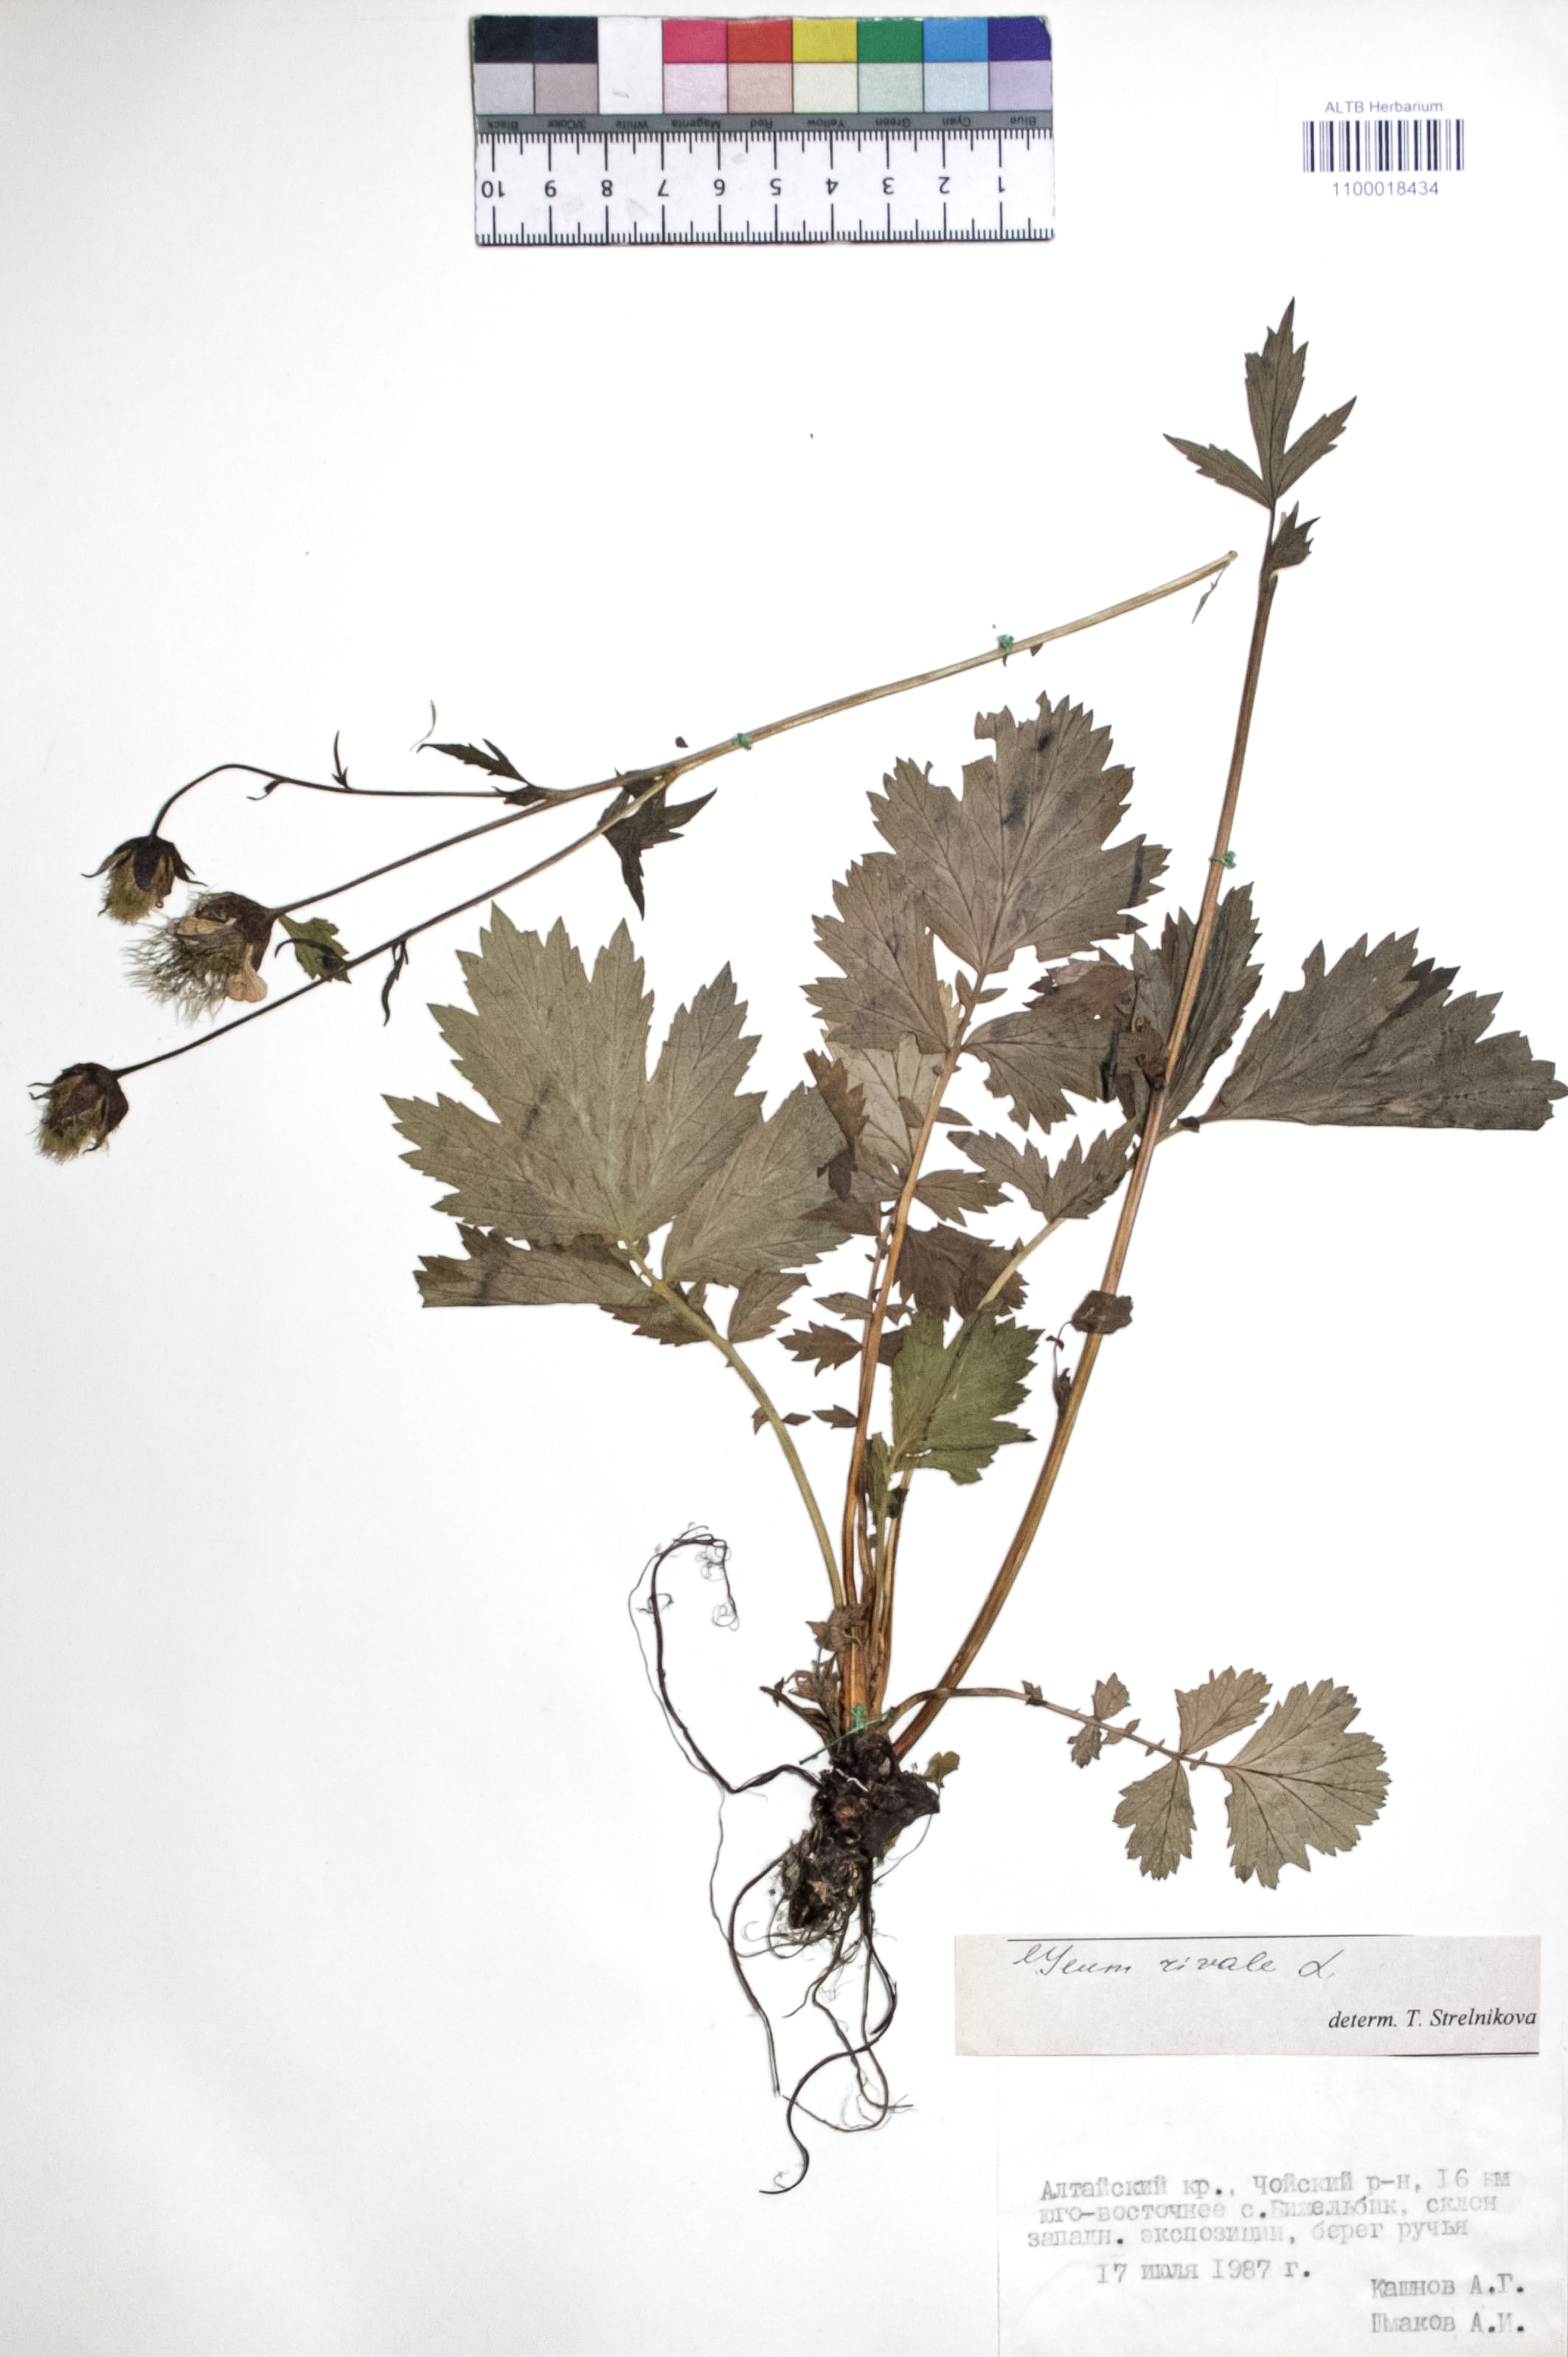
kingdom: Plantae
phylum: Tracheophyta
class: Magnoliopsida
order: Rosales
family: Rosaceae
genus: Geum
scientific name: Geum rivale
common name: Water avens
